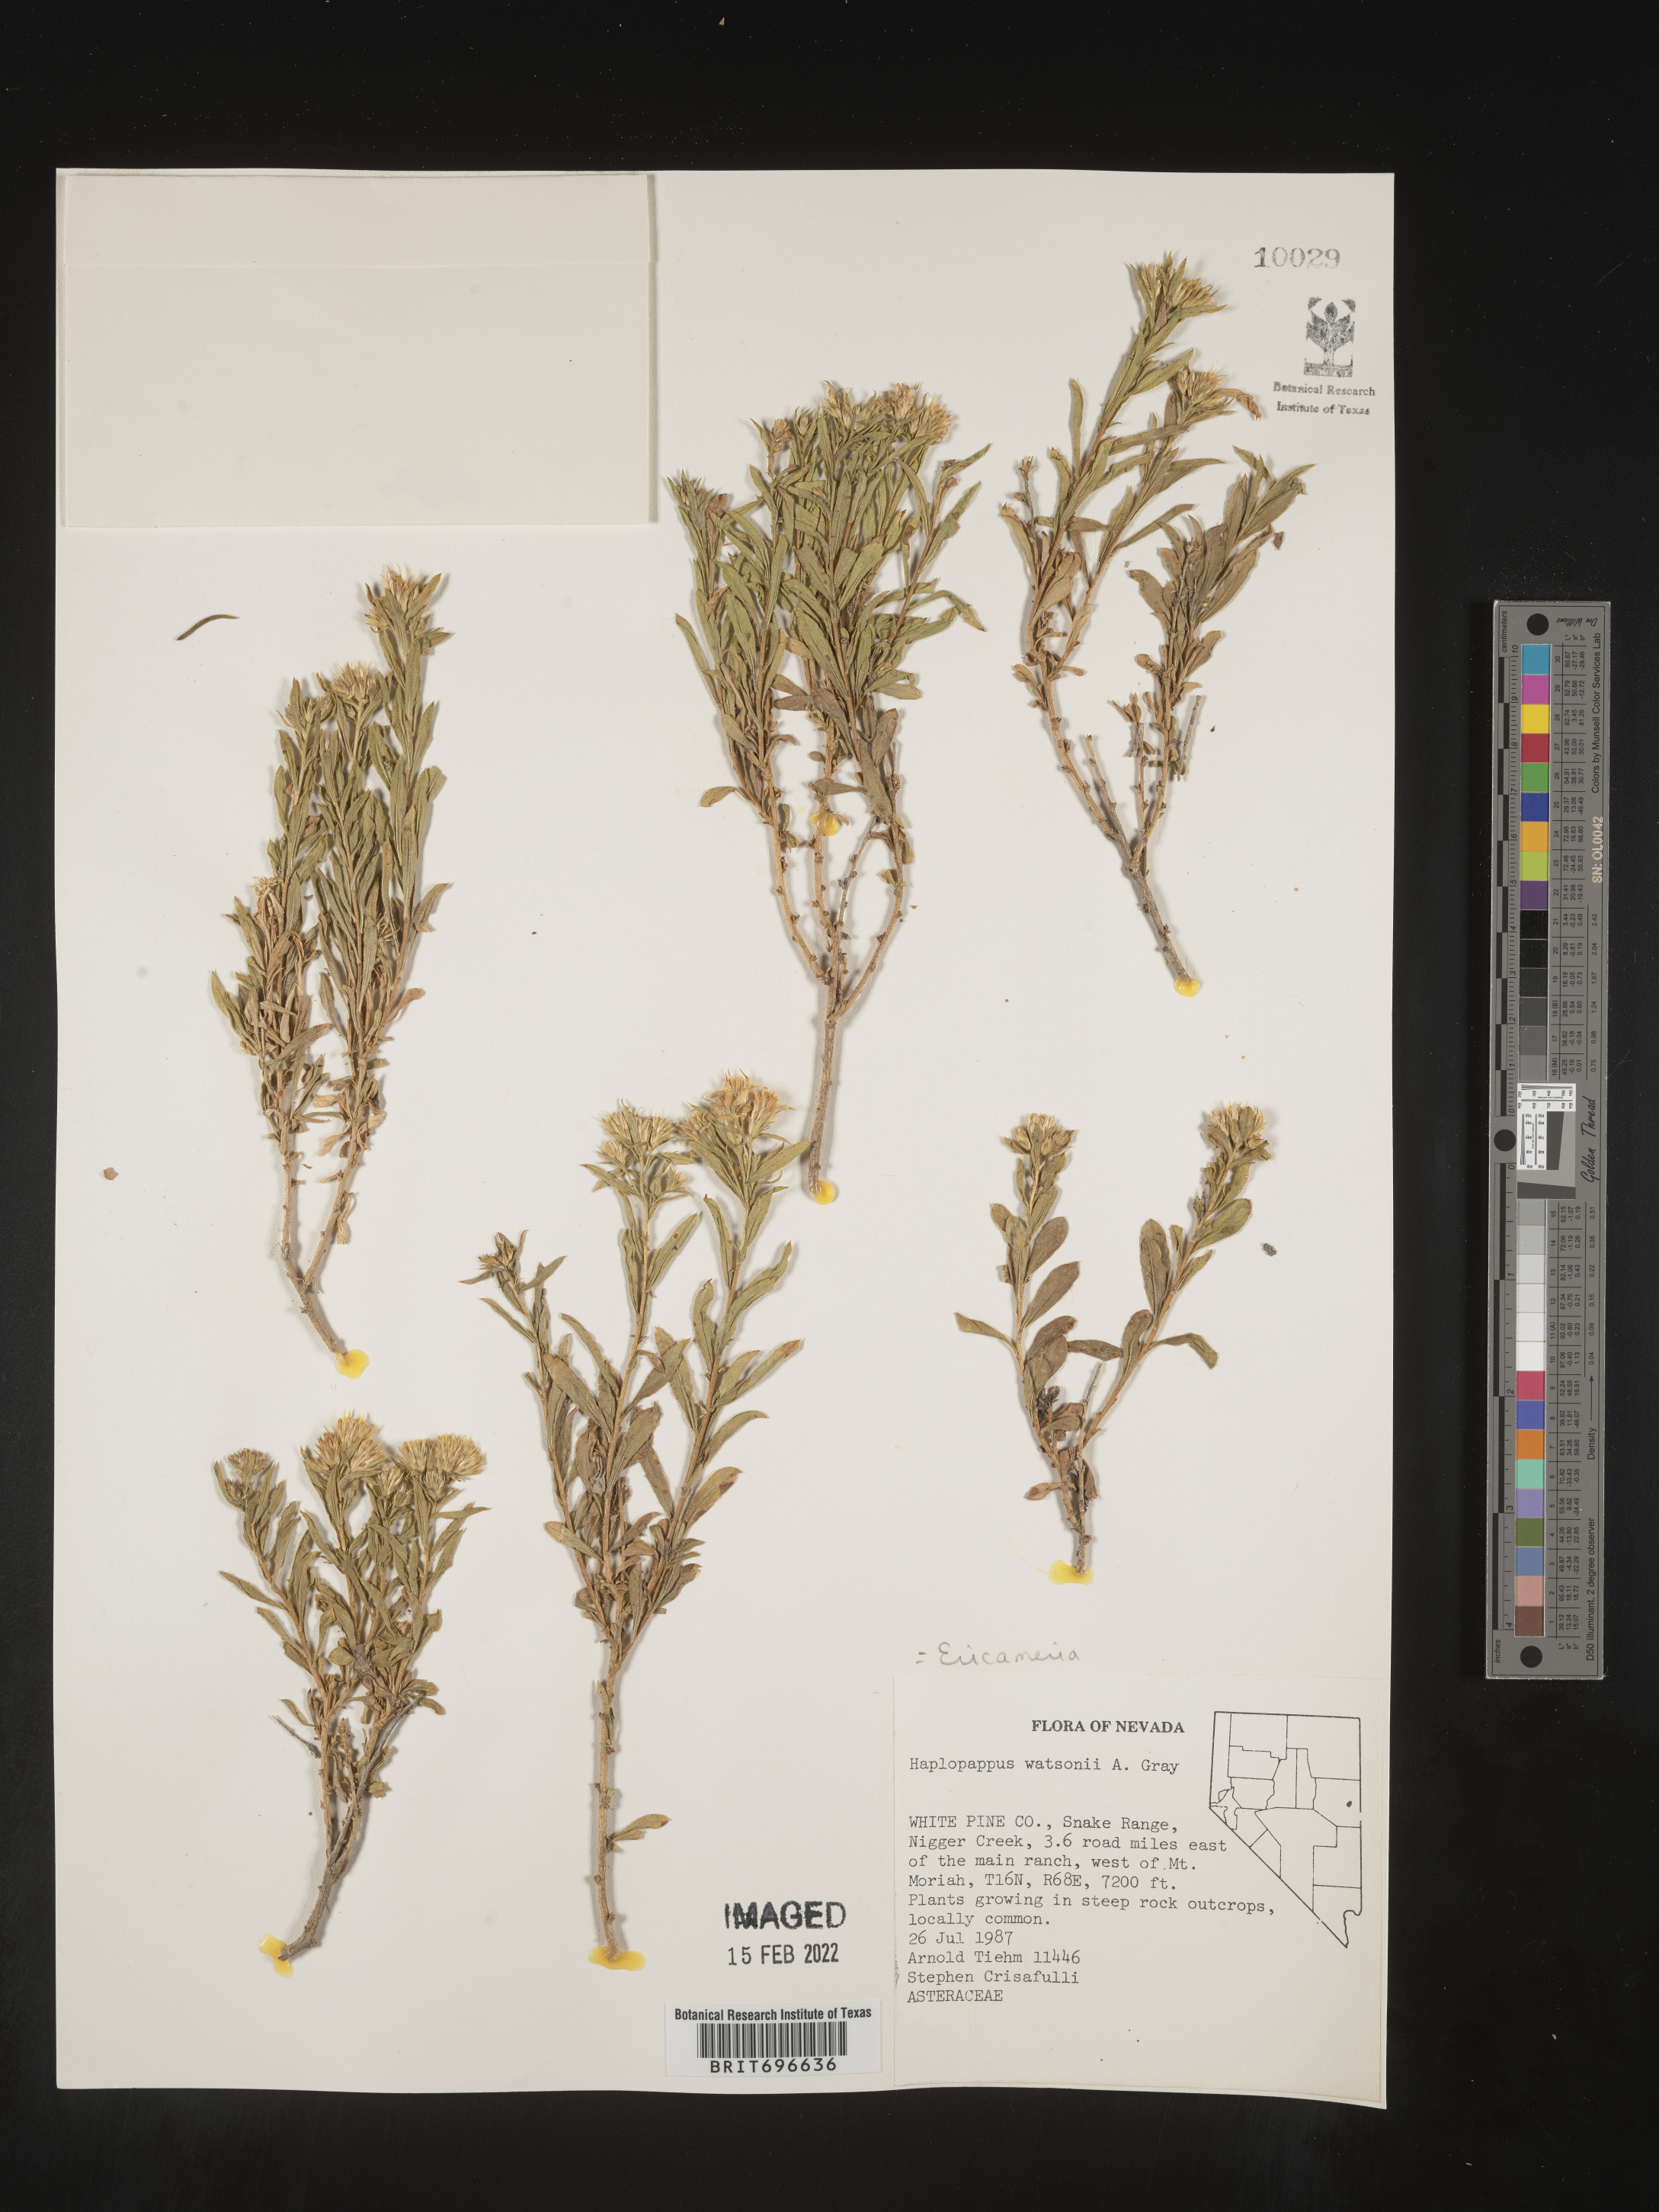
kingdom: Plantae
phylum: Tracheophyta
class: Magnoliopsida
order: Asterales
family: Asteraceae
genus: Ericameria
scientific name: Ericameria watsonii
